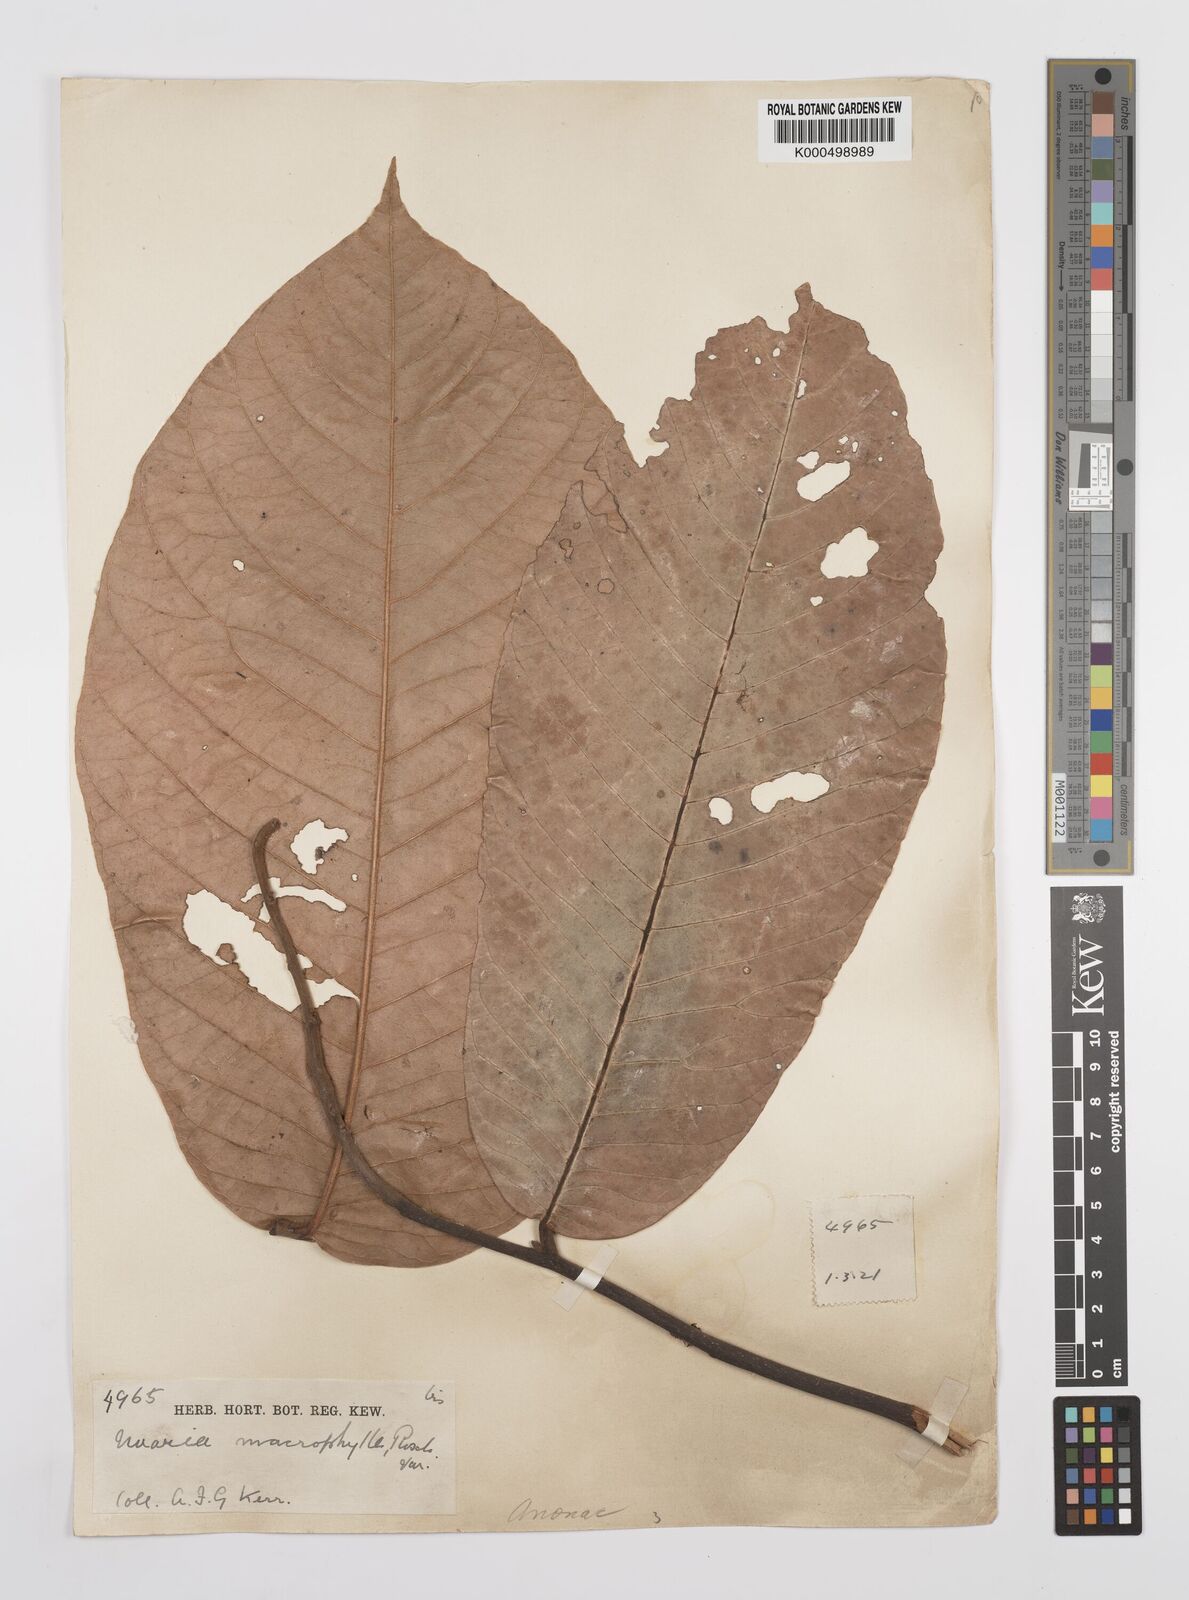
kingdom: Plantae
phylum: Tracheophyta
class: Magnoliopsida
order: Magnoliales
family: Annonaceae
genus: Uvaria
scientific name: Uvaria littoralis
